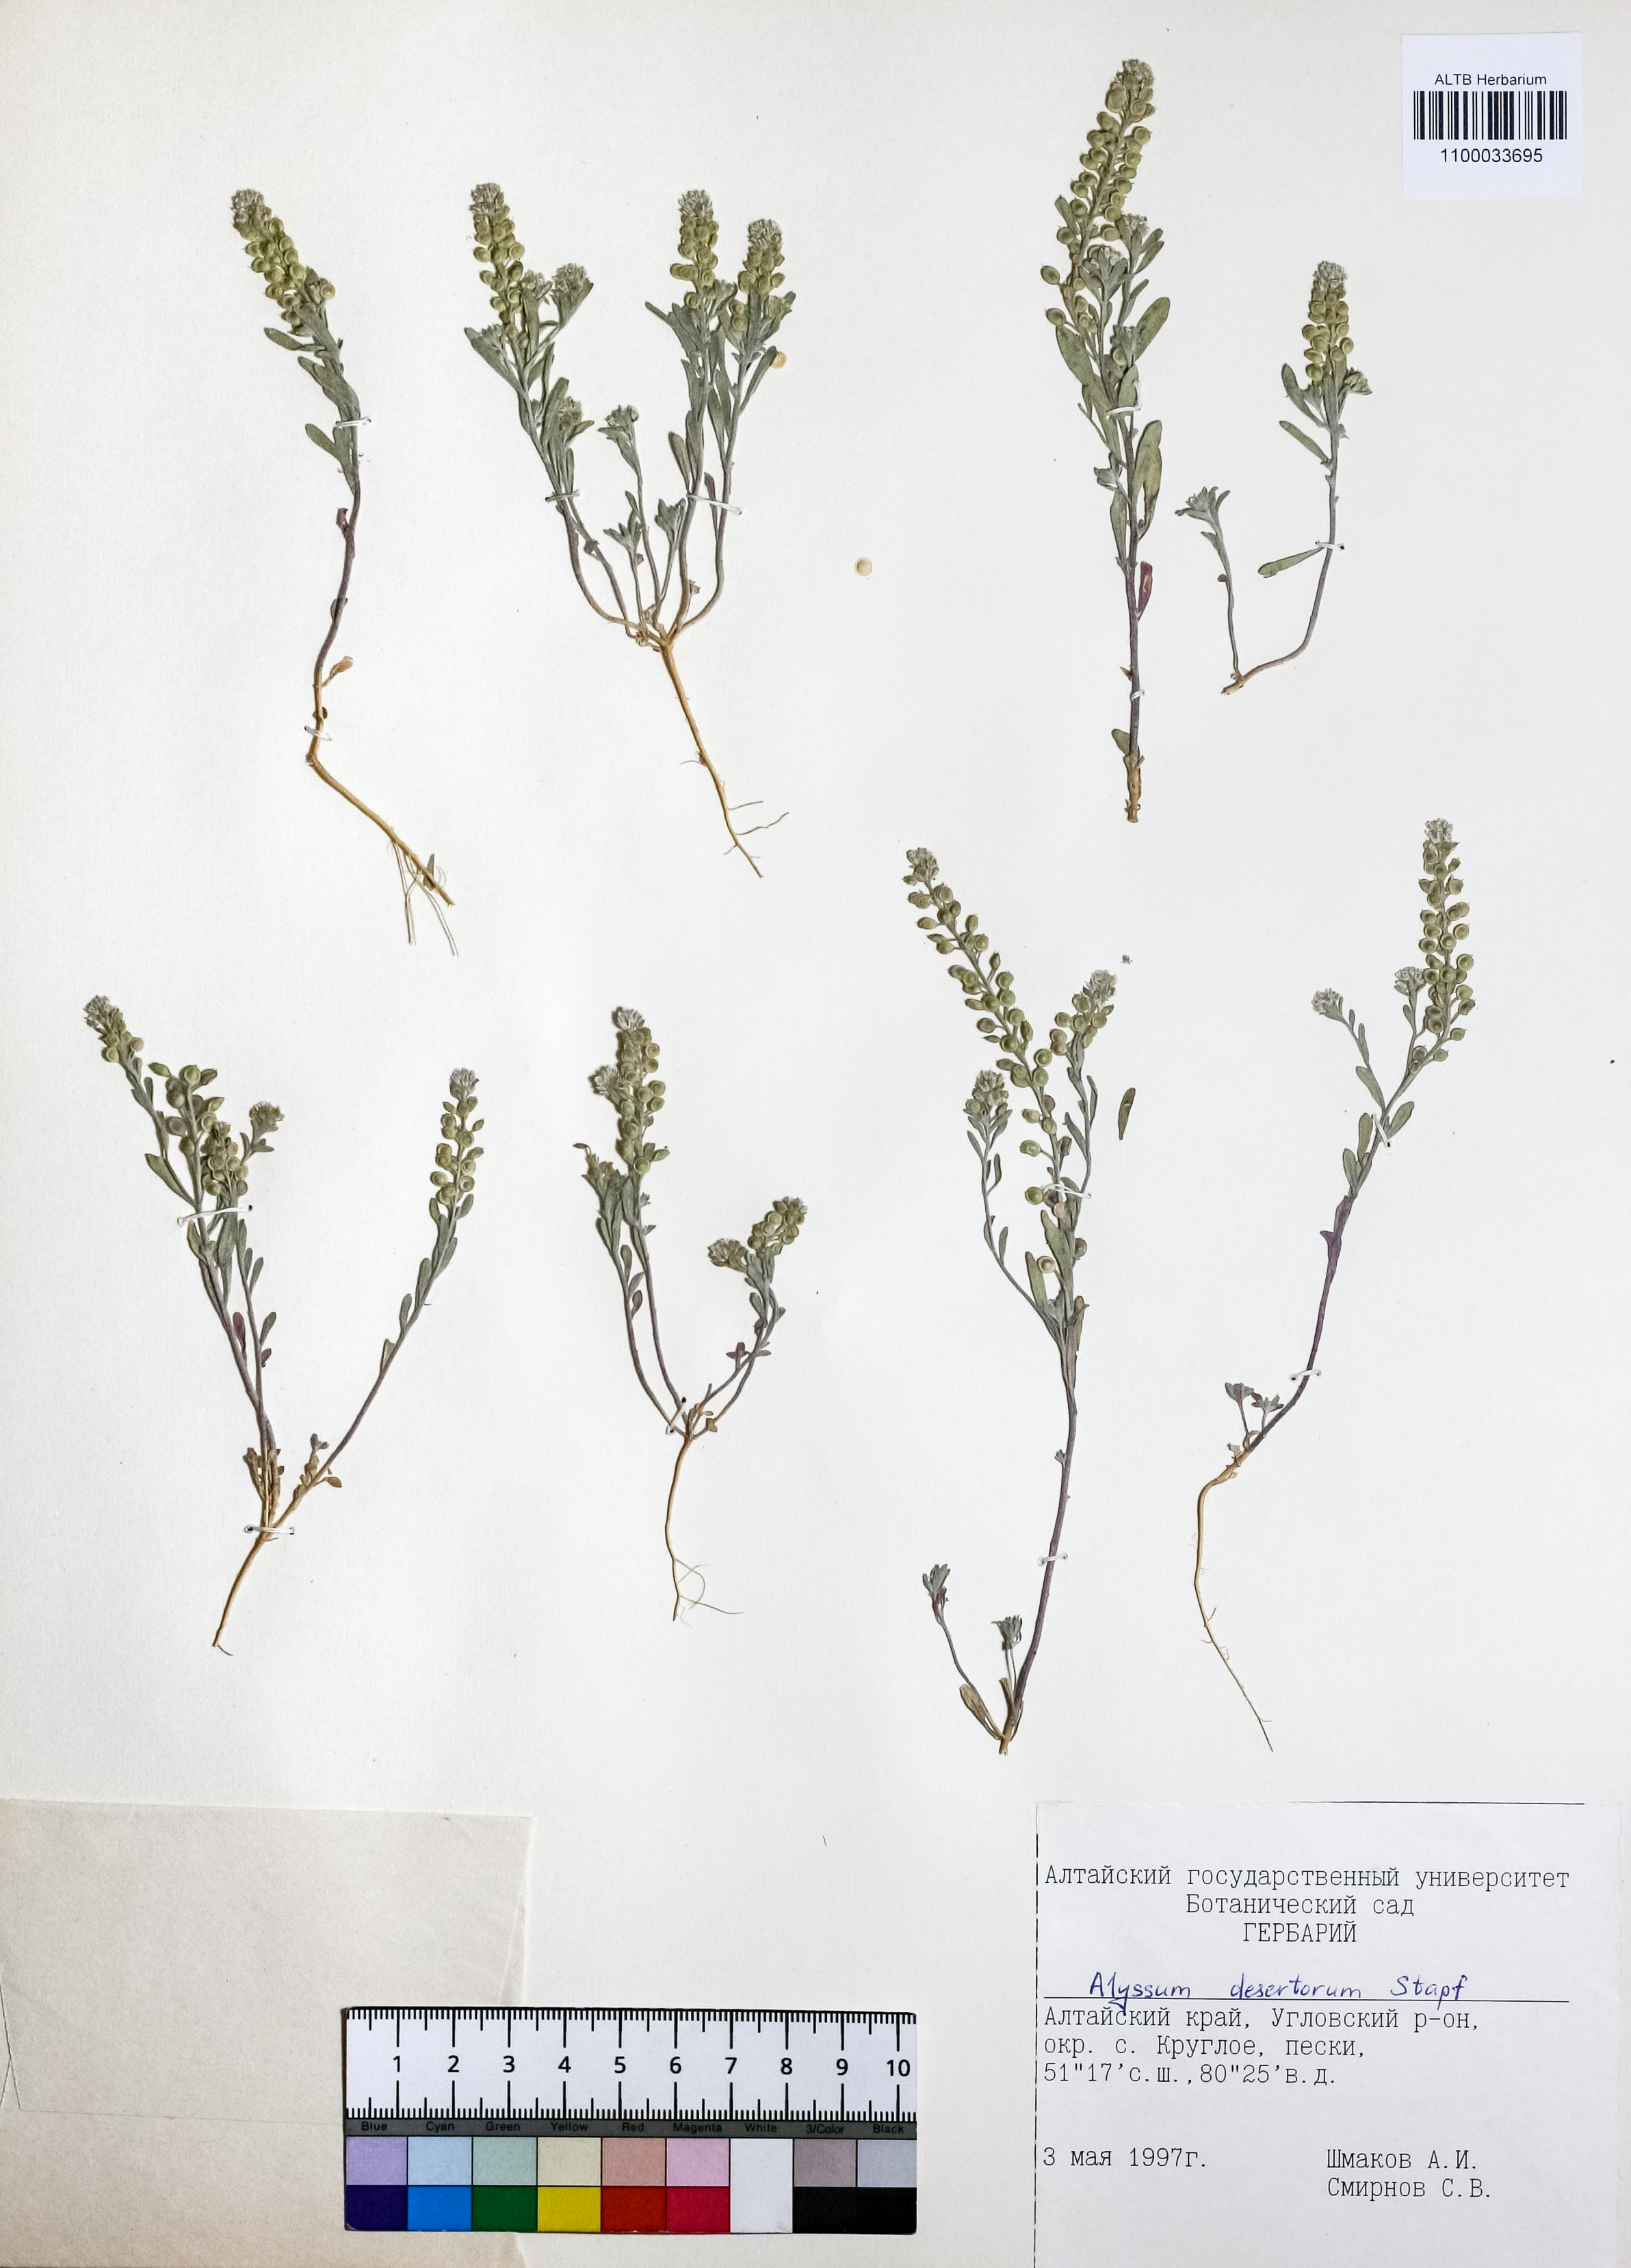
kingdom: Plantae
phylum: Tracheophyta
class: Magnoliopsida
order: Brassicales
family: Brassicaceae
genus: Alyssum
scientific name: Alyssum turkestanicum
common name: Desert alyssum
